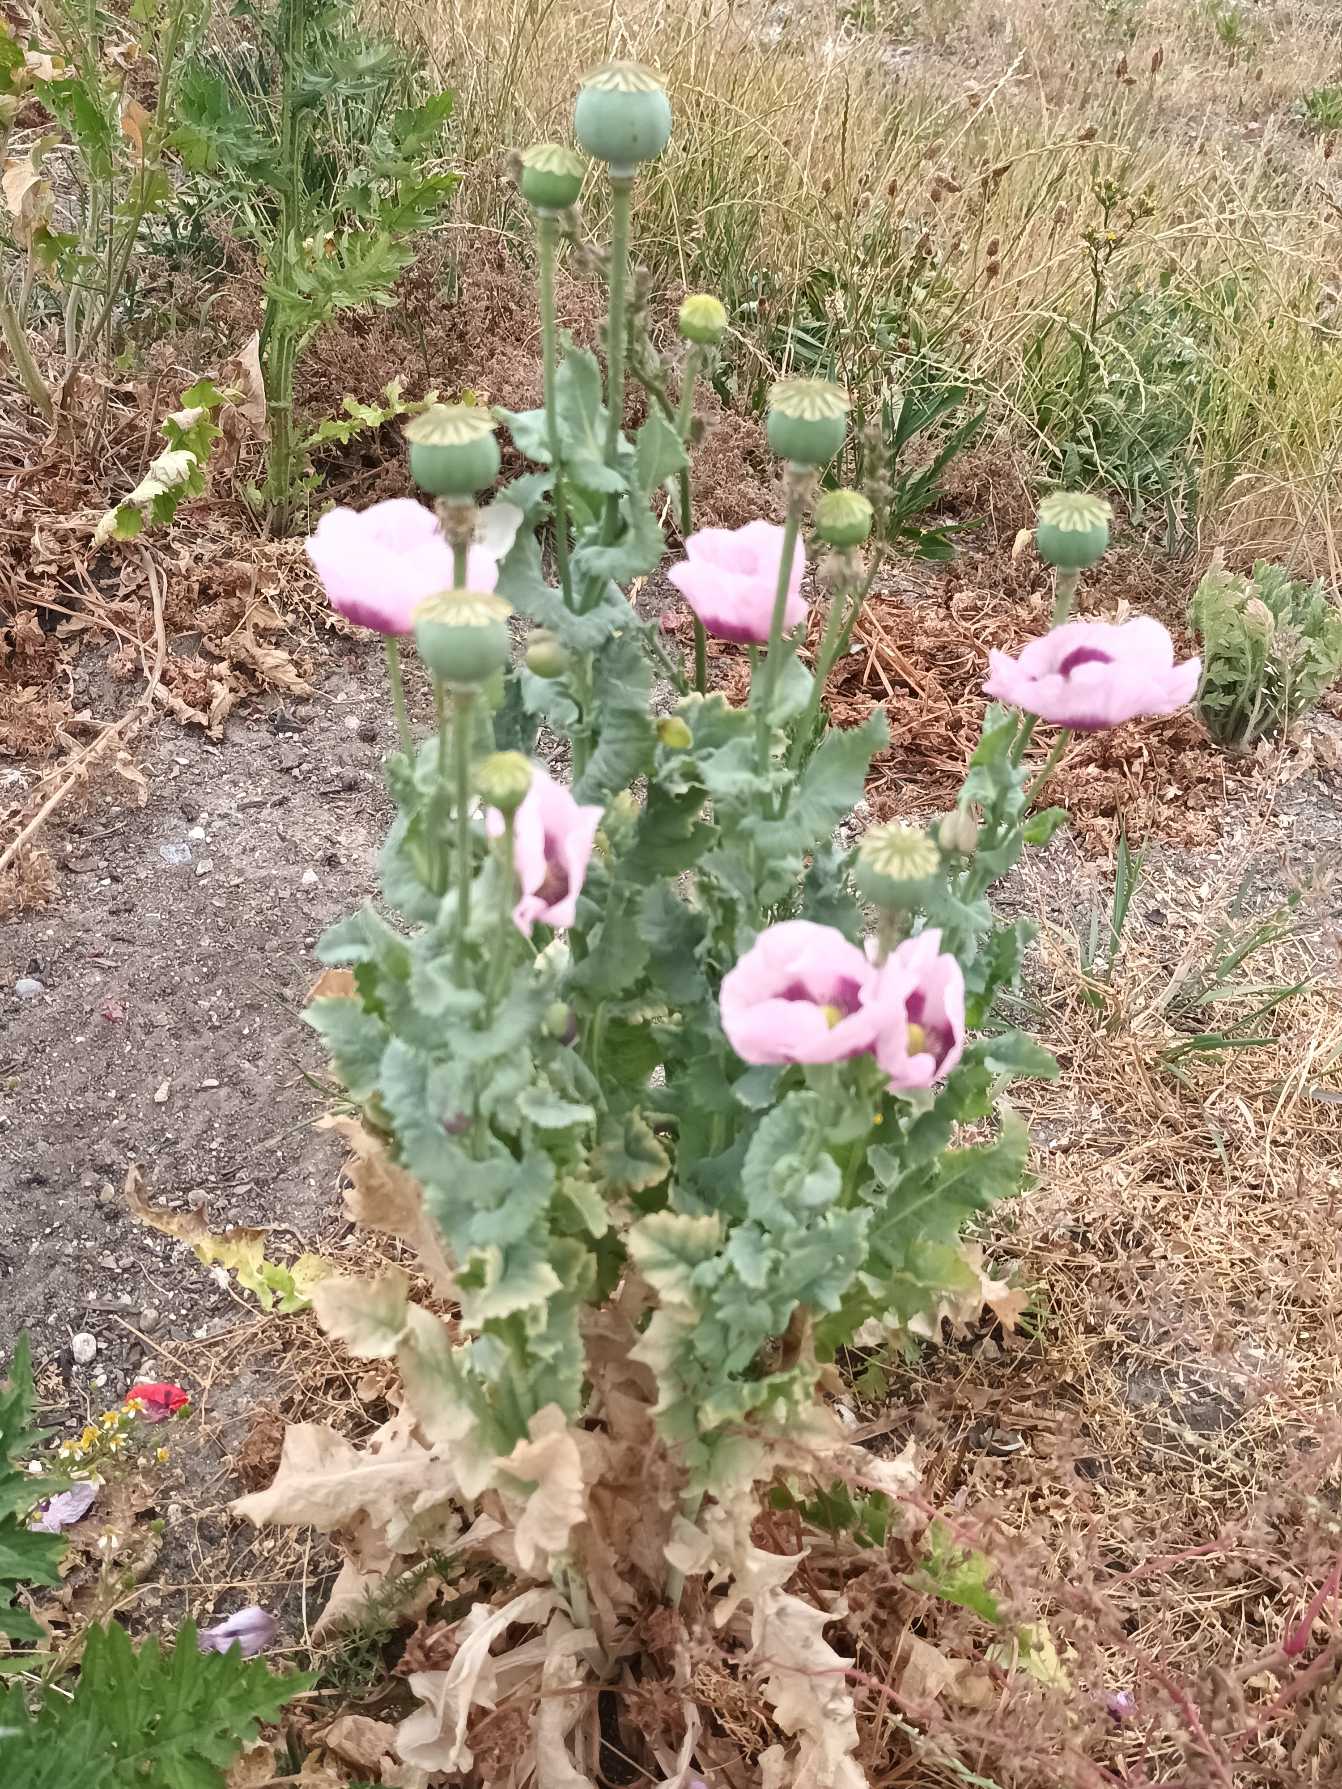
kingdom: Plantae
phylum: Tracheophyta
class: Magnoliopsida
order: Ranunculales
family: Papaveraceae
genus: Papaver
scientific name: Papaver somniferum
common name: Opium-valmue
